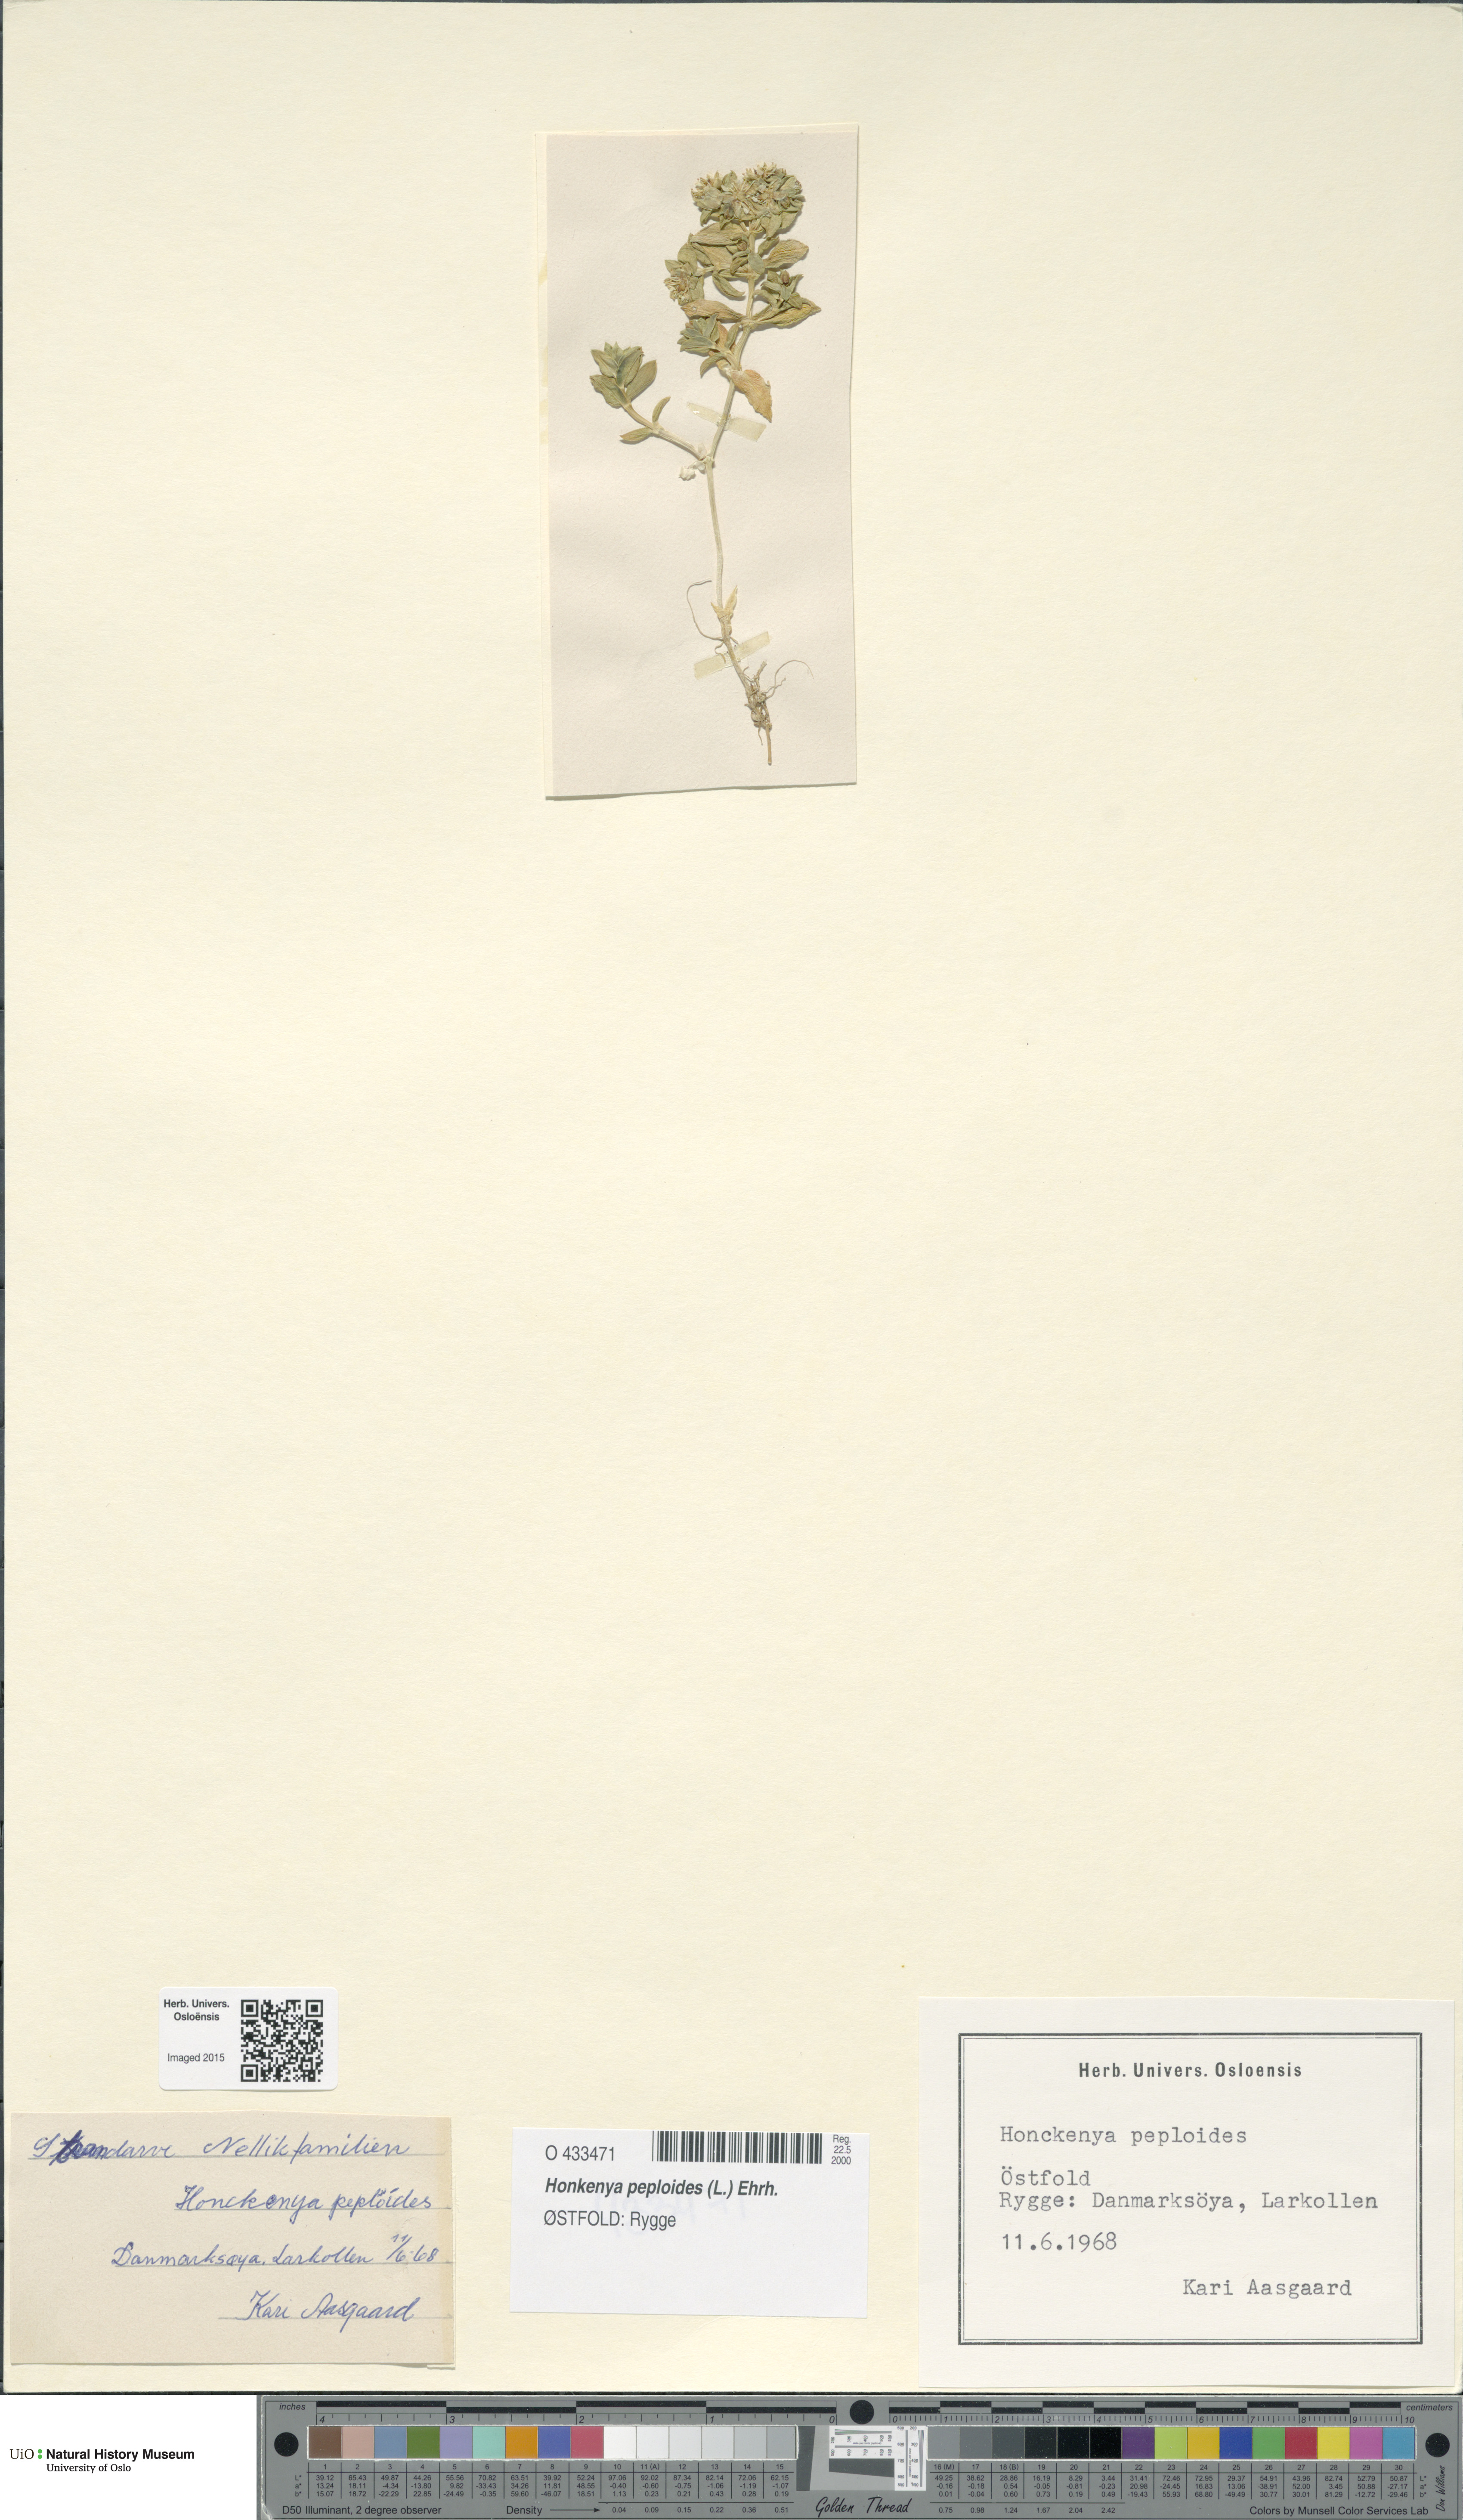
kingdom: Plantae
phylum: Tracheophyta
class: Magnoliopsida
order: Caryophyllales
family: Caryophyllaceae
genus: Honckenya
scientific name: Honckenya peploides
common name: Sea sandwort
